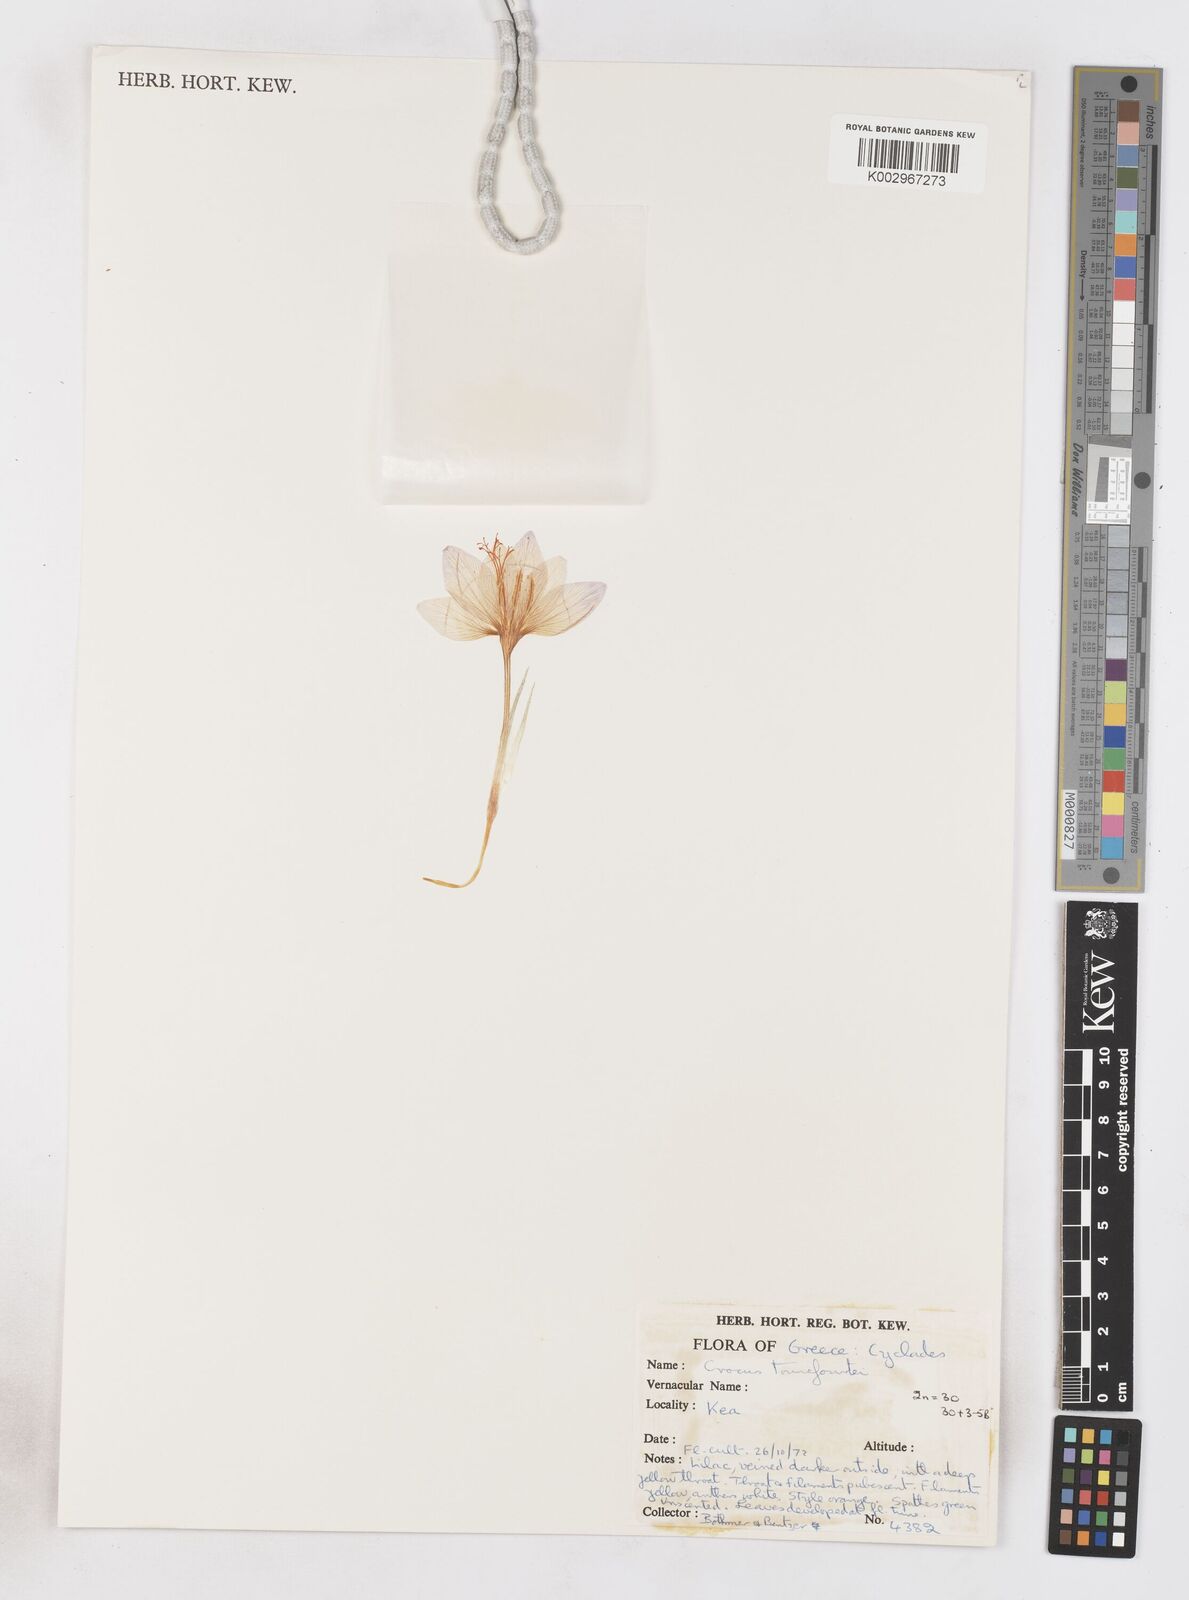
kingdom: Plantae
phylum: Tracheophyta
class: Liliopsida
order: Asparagales
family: Iridaceae
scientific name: Iridaceae
